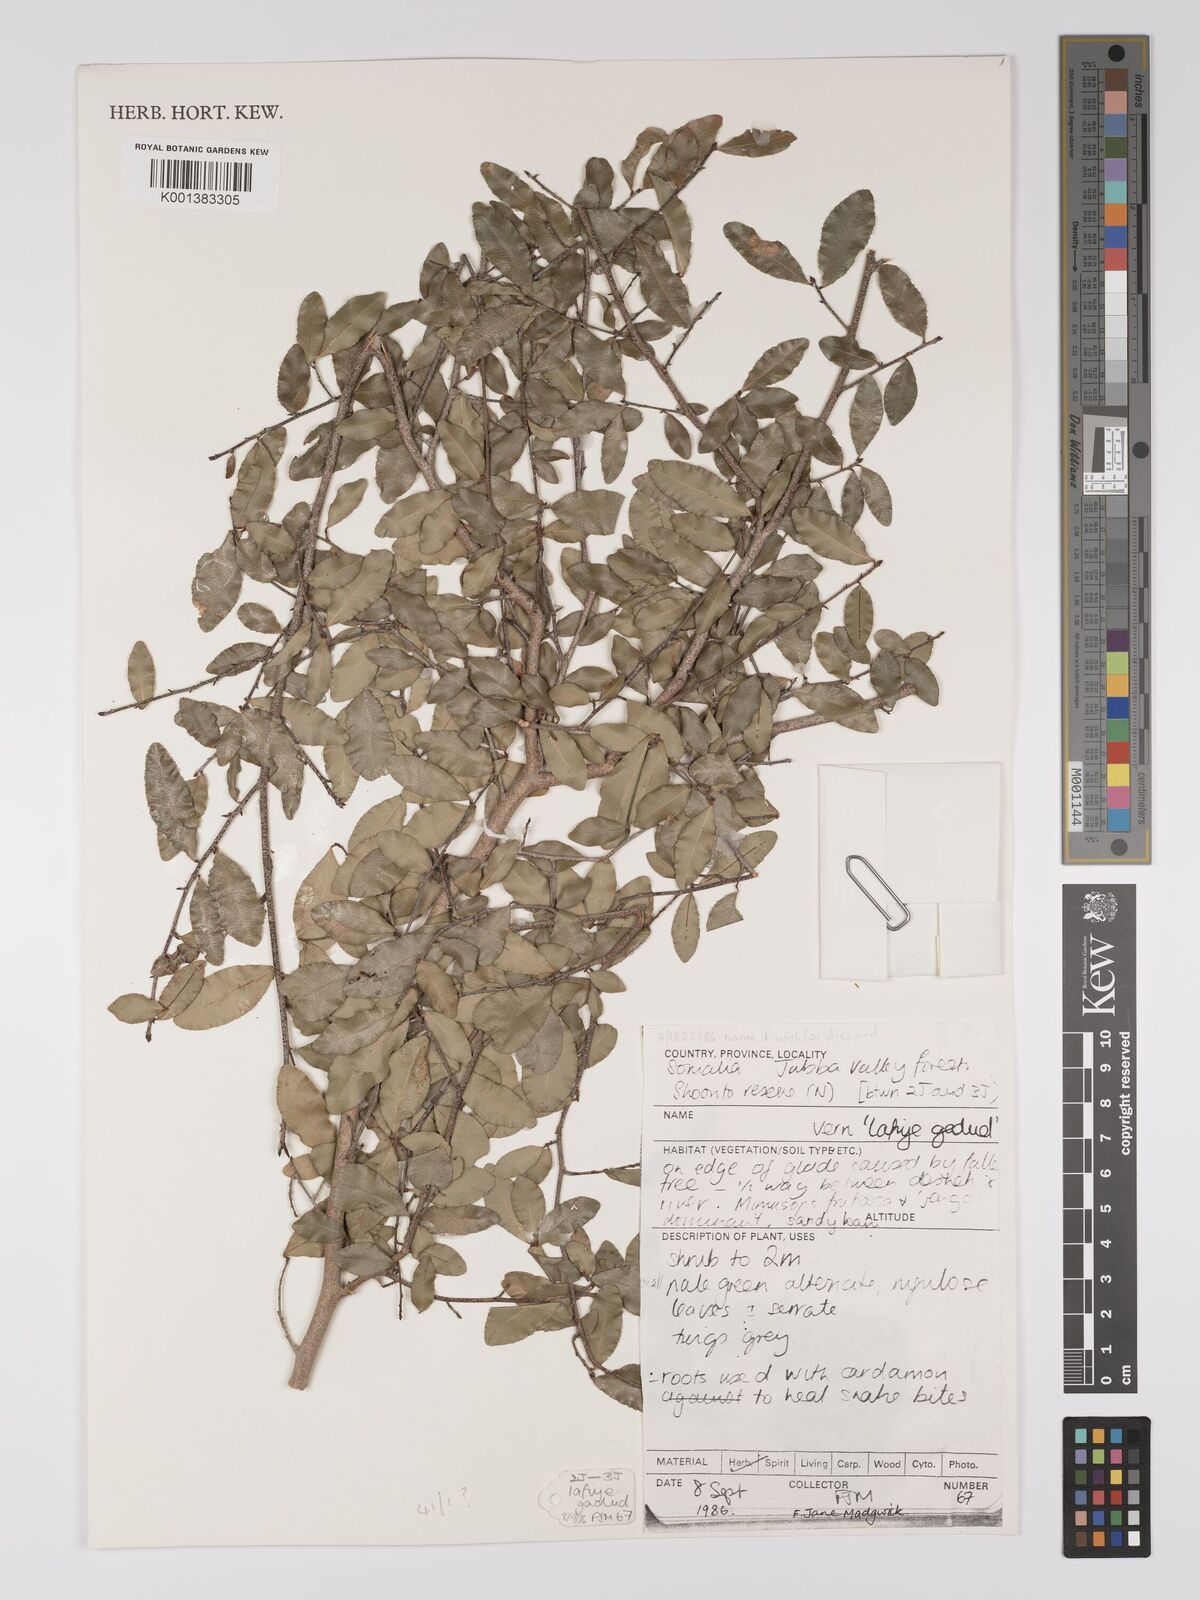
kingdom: Plantae
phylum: Tracheophyta
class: Magnoliopsida
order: Malpighiales
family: Ochnaceae
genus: Ochna
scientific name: Ochna
